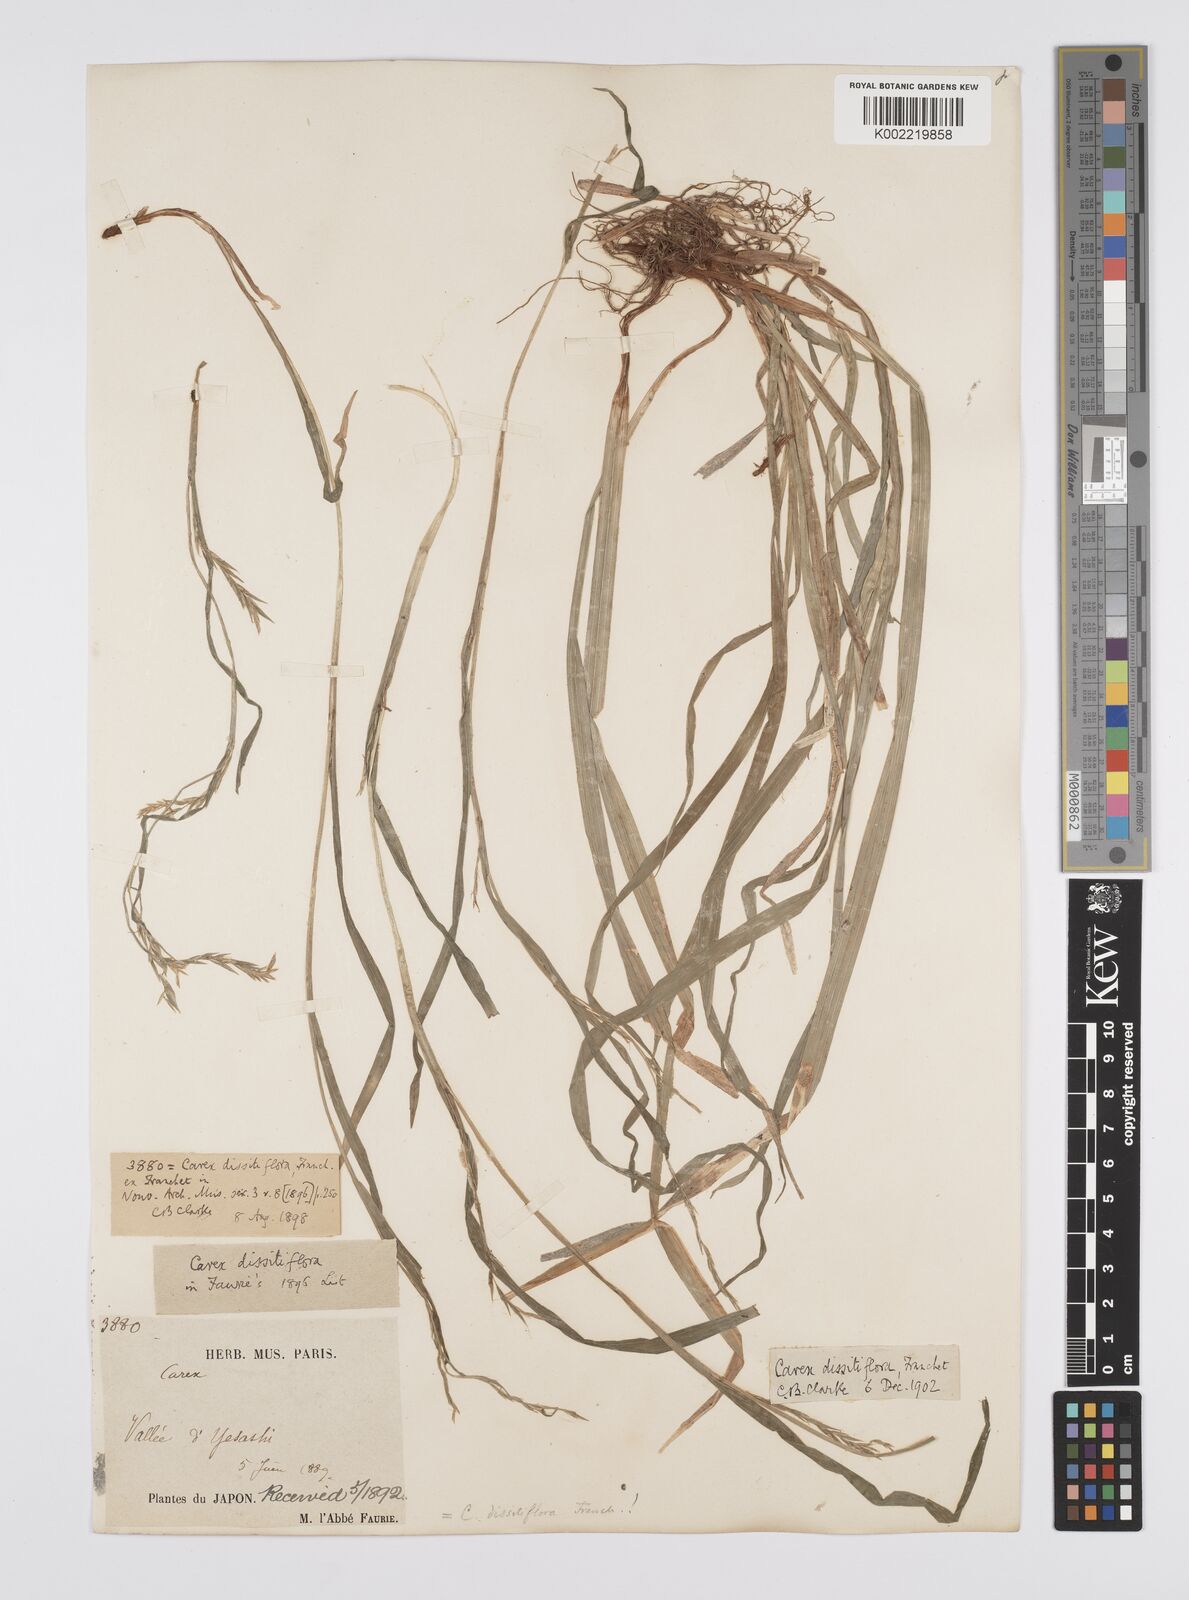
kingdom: Plantae
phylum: Tracheophyta
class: Liliopsida
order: Poales
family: Cyperaceae
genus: Carex
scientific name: Carex dissitiflora
